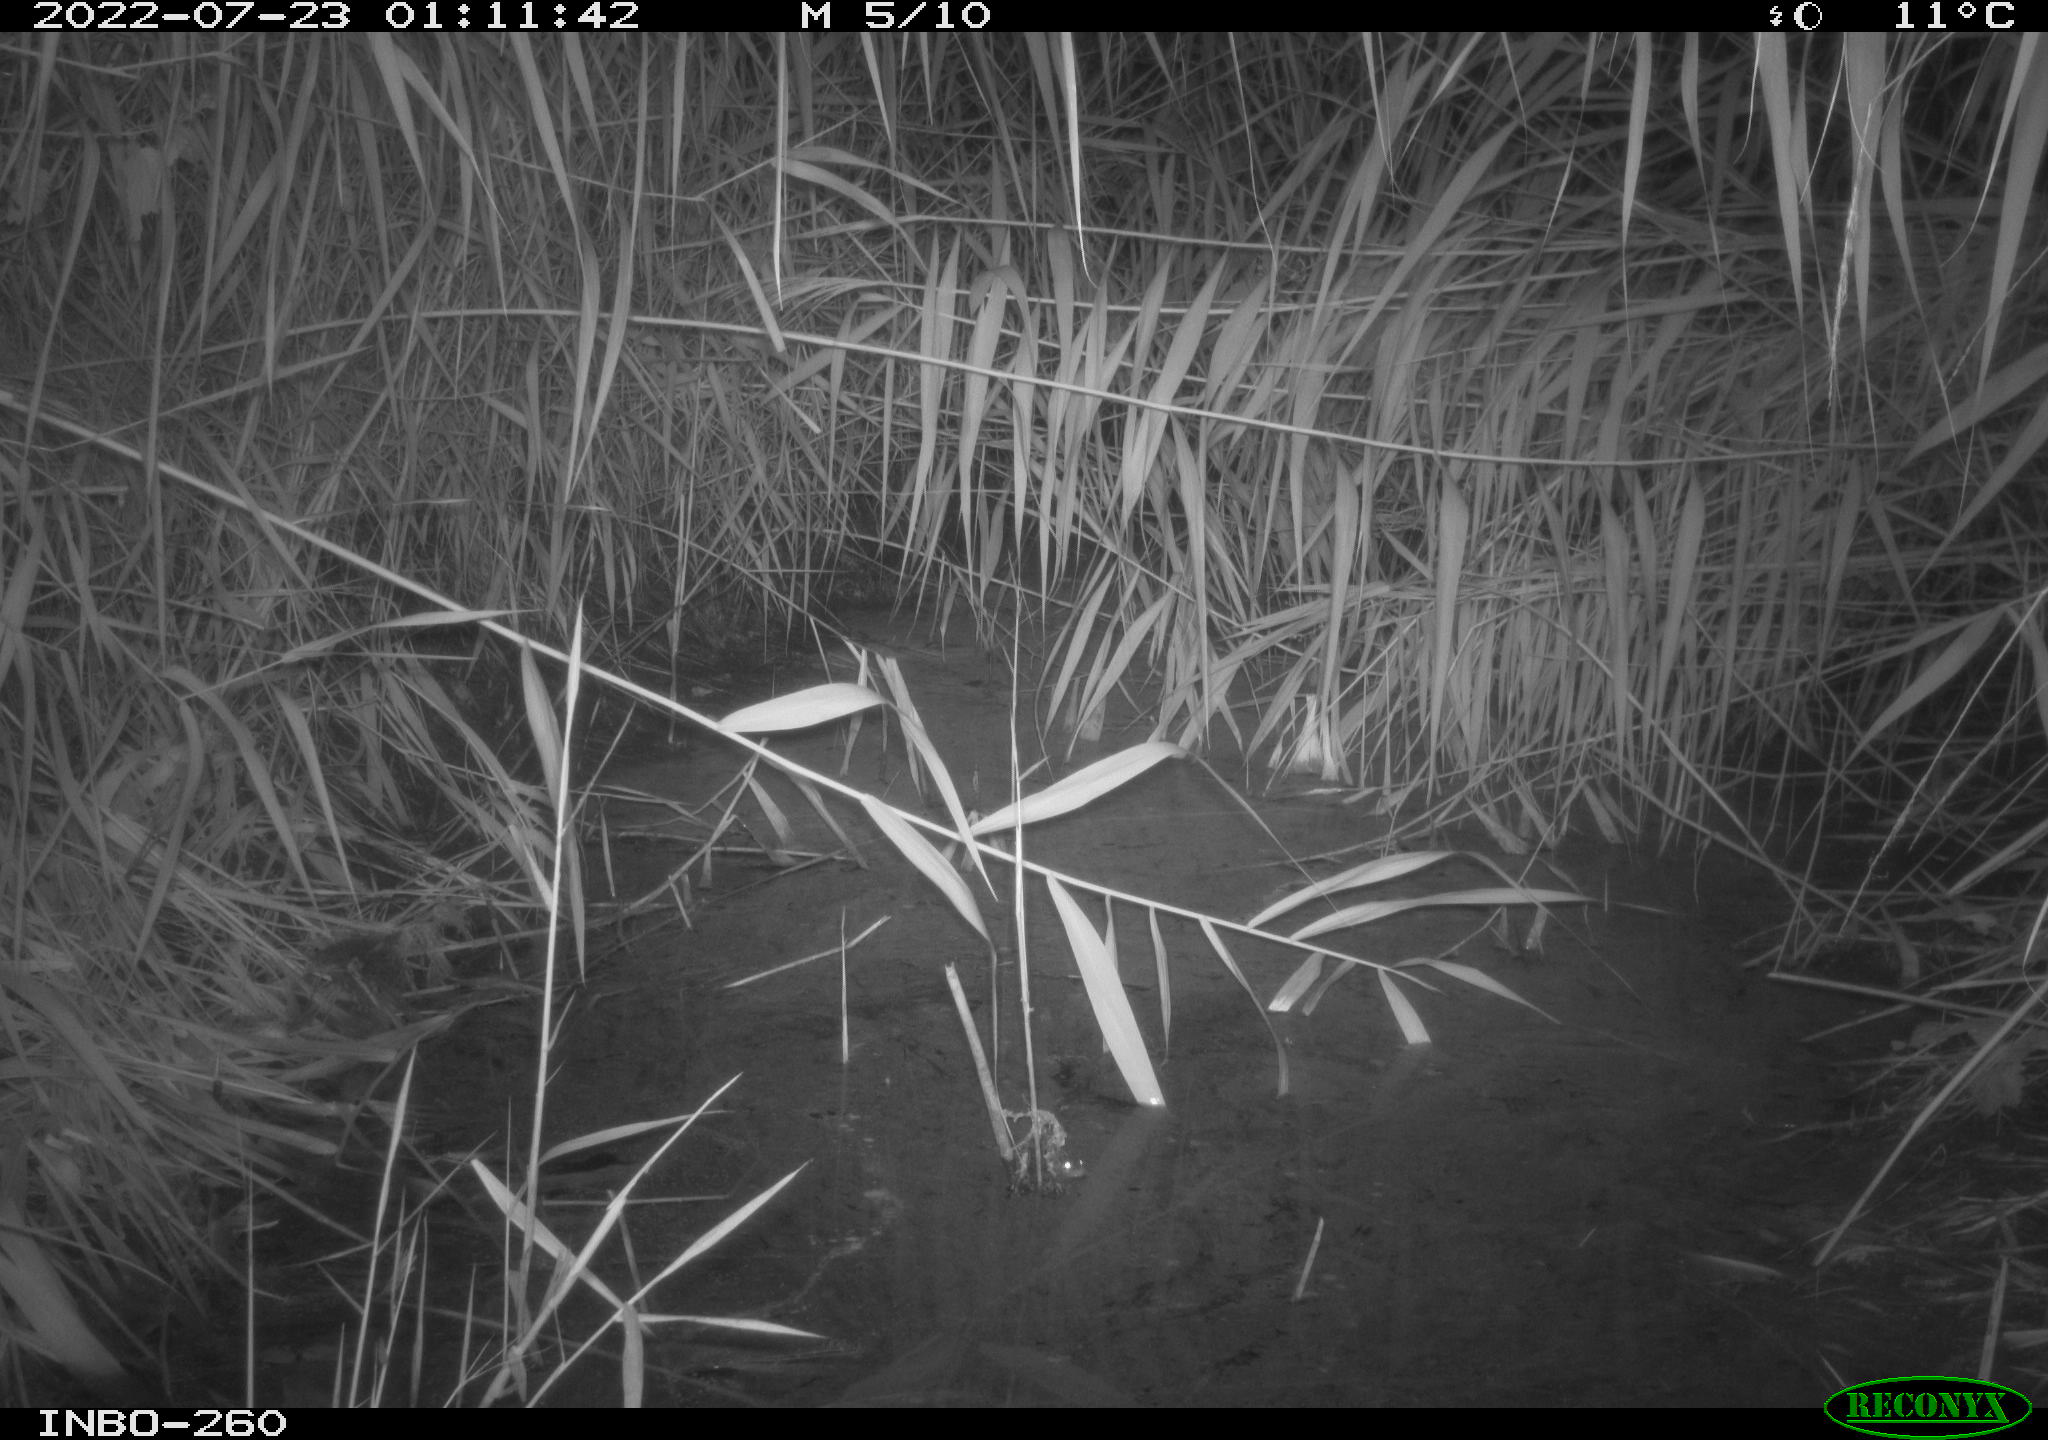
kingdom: Animalia
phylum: Chordata
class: Mammalia
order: Rodentia
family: Muridae
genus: Rattus
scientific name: Rattus norvegicus
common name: Brown rat
